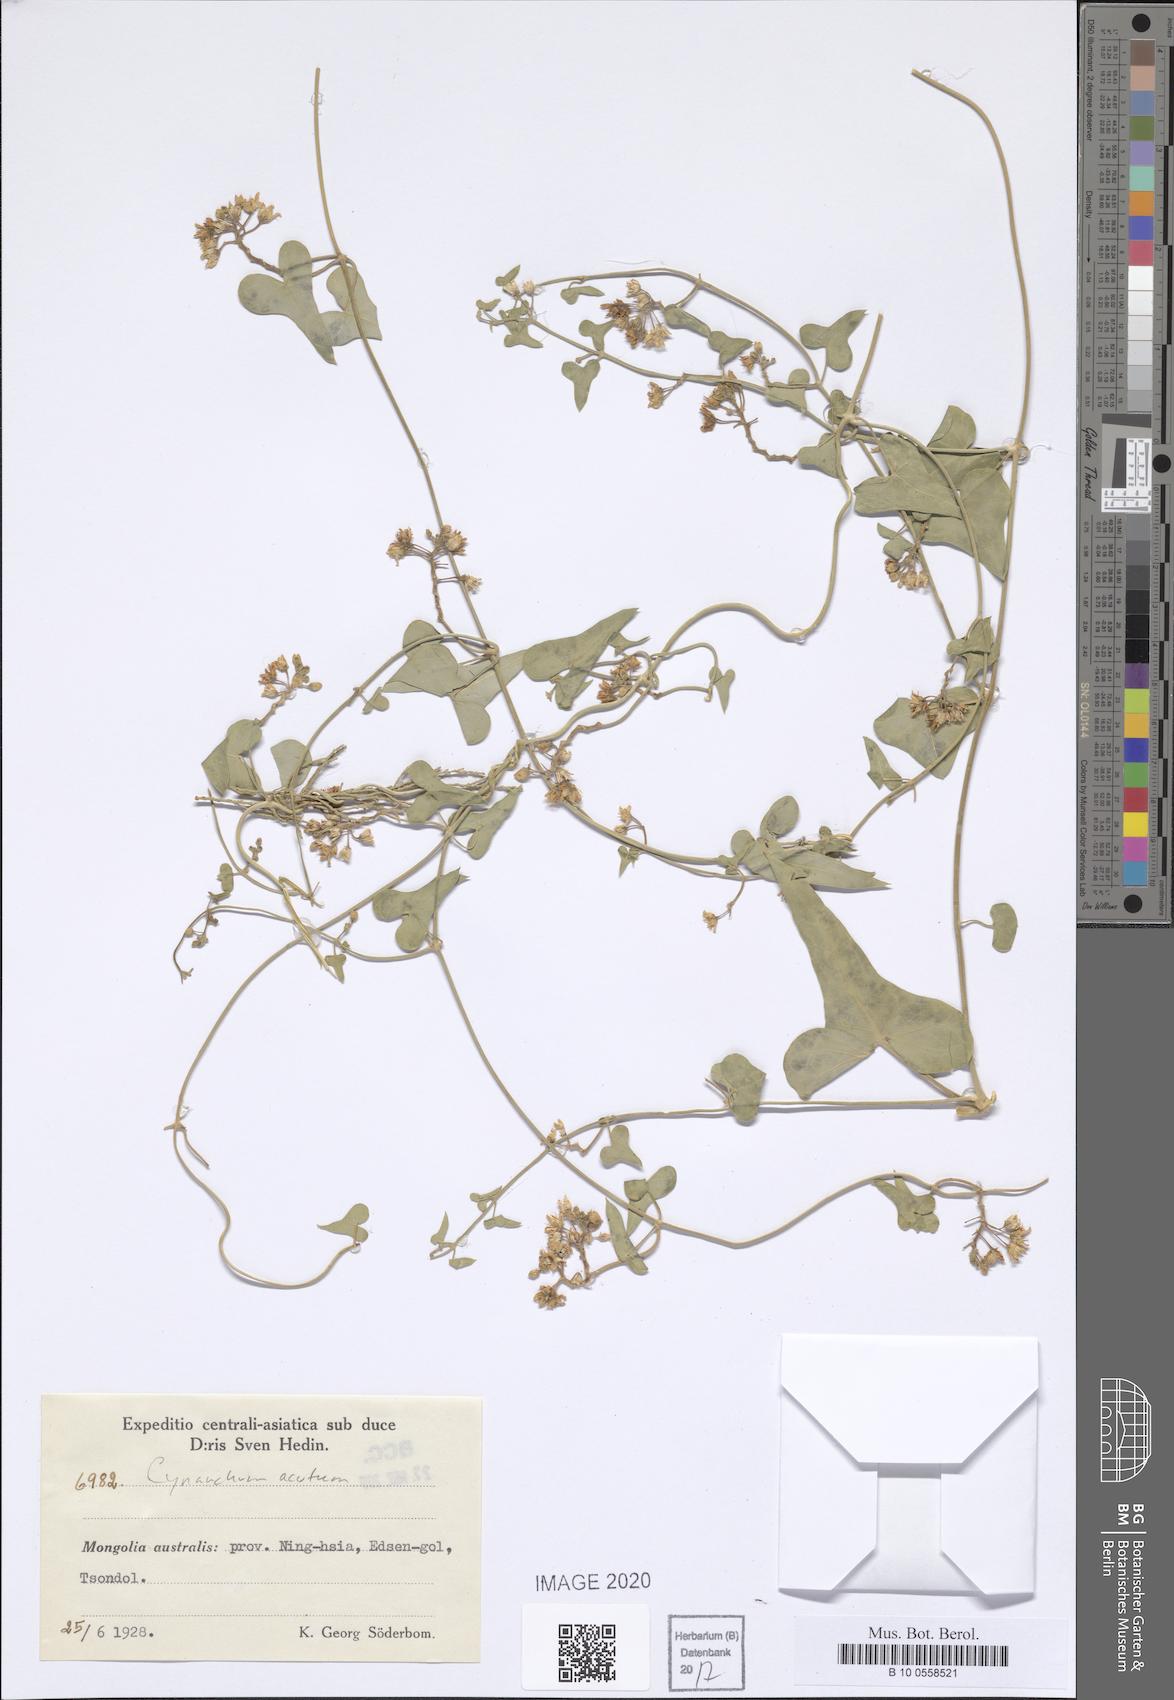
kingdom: Plantae
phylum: Tracheophyta
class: Magnoliopsida
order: Gentianales
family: Apocynaceae
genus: Cynanchum
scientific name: Cynanchum acutum
